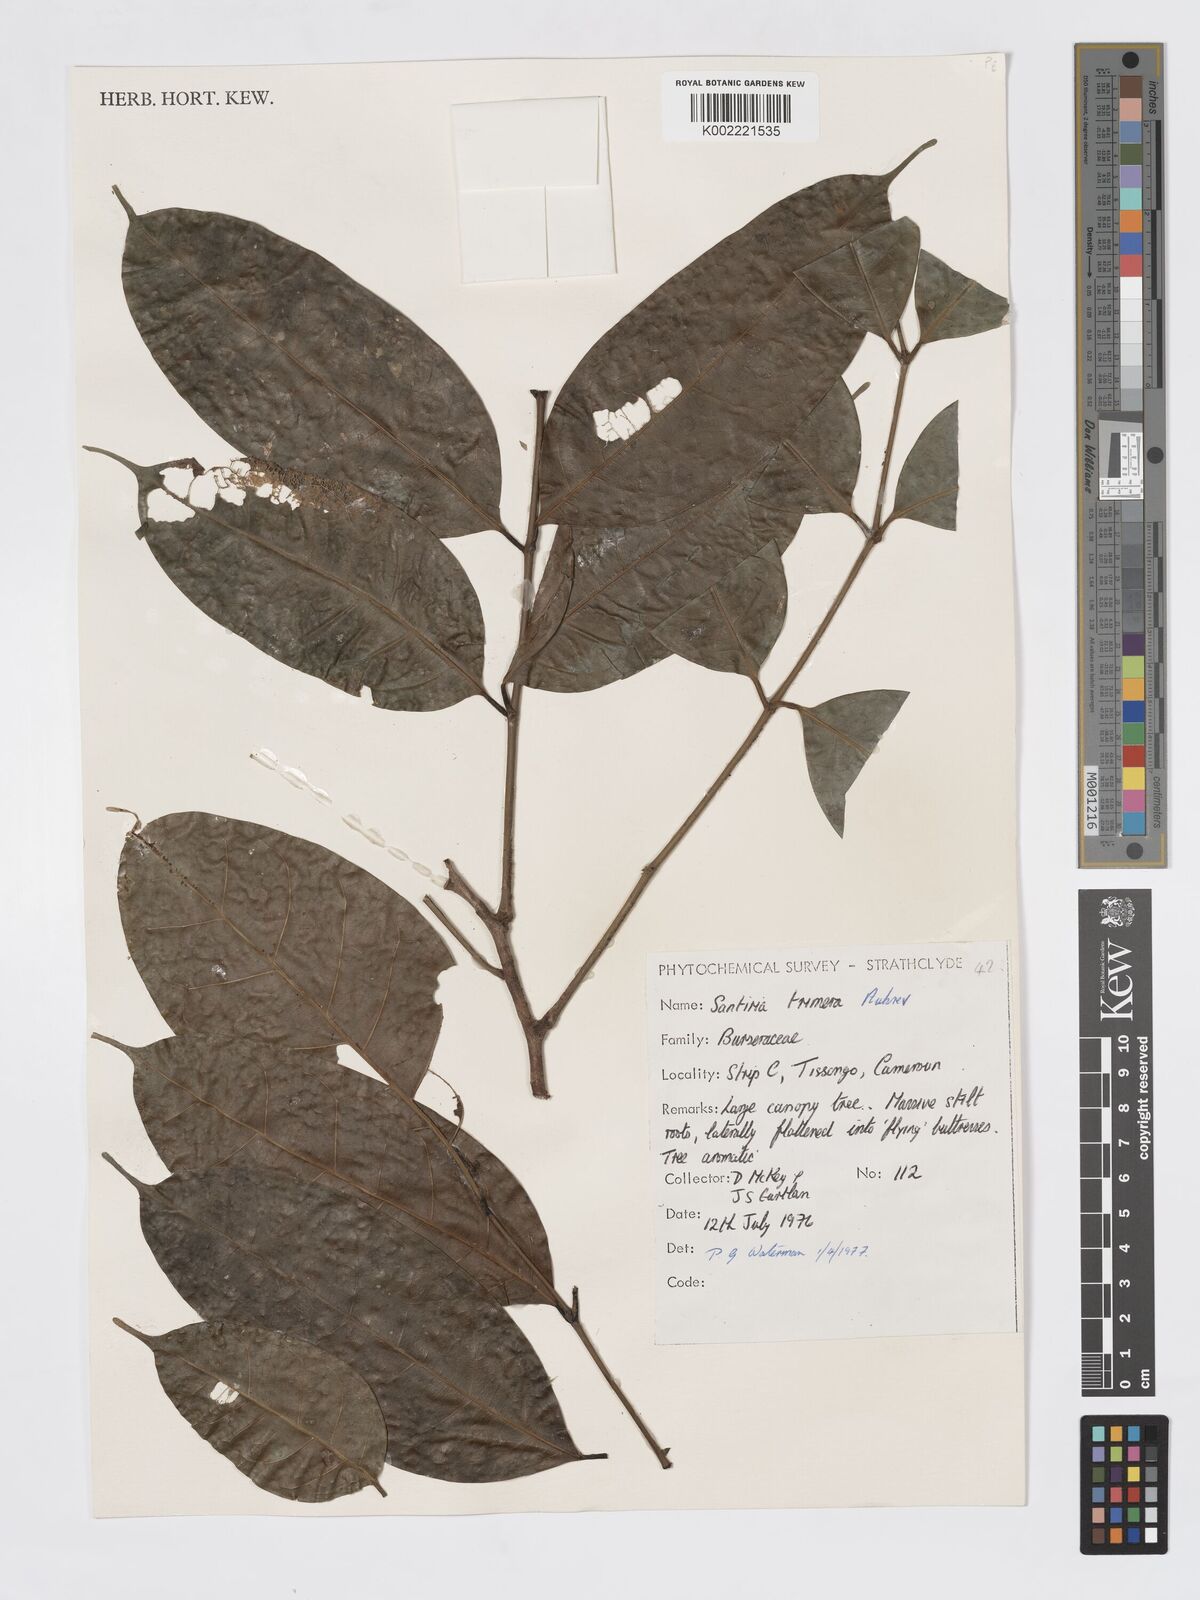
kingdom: Plantae
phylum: Tracheophyta
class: Magnoliopsida
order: Sapindales
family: Burseraceae
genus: Pachylobus
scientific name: Pachylobus trimerus
